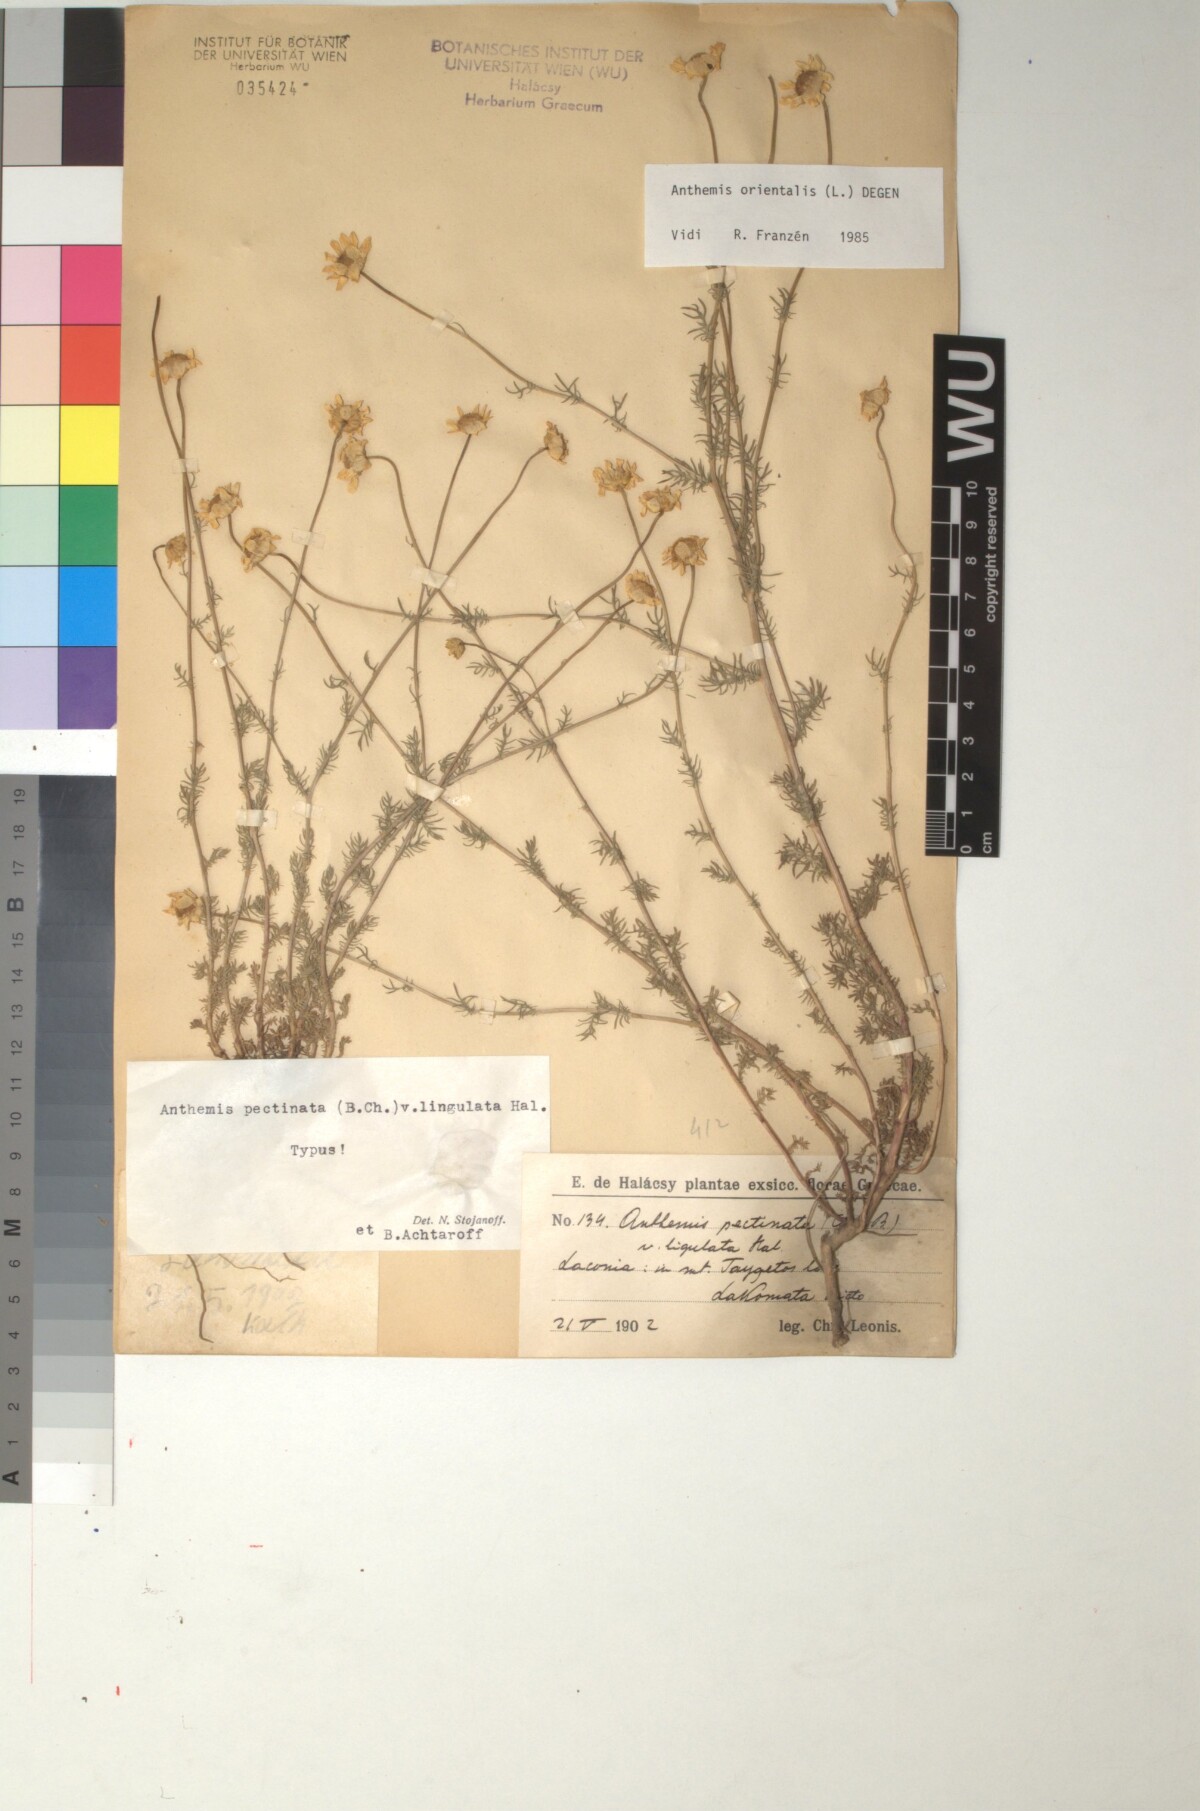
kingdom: Plantae
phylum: Tracheophyta
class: Magnoliopsida
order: Asterales
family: Asteraceae
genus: Anthemis
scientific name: Anthemis orientalis
